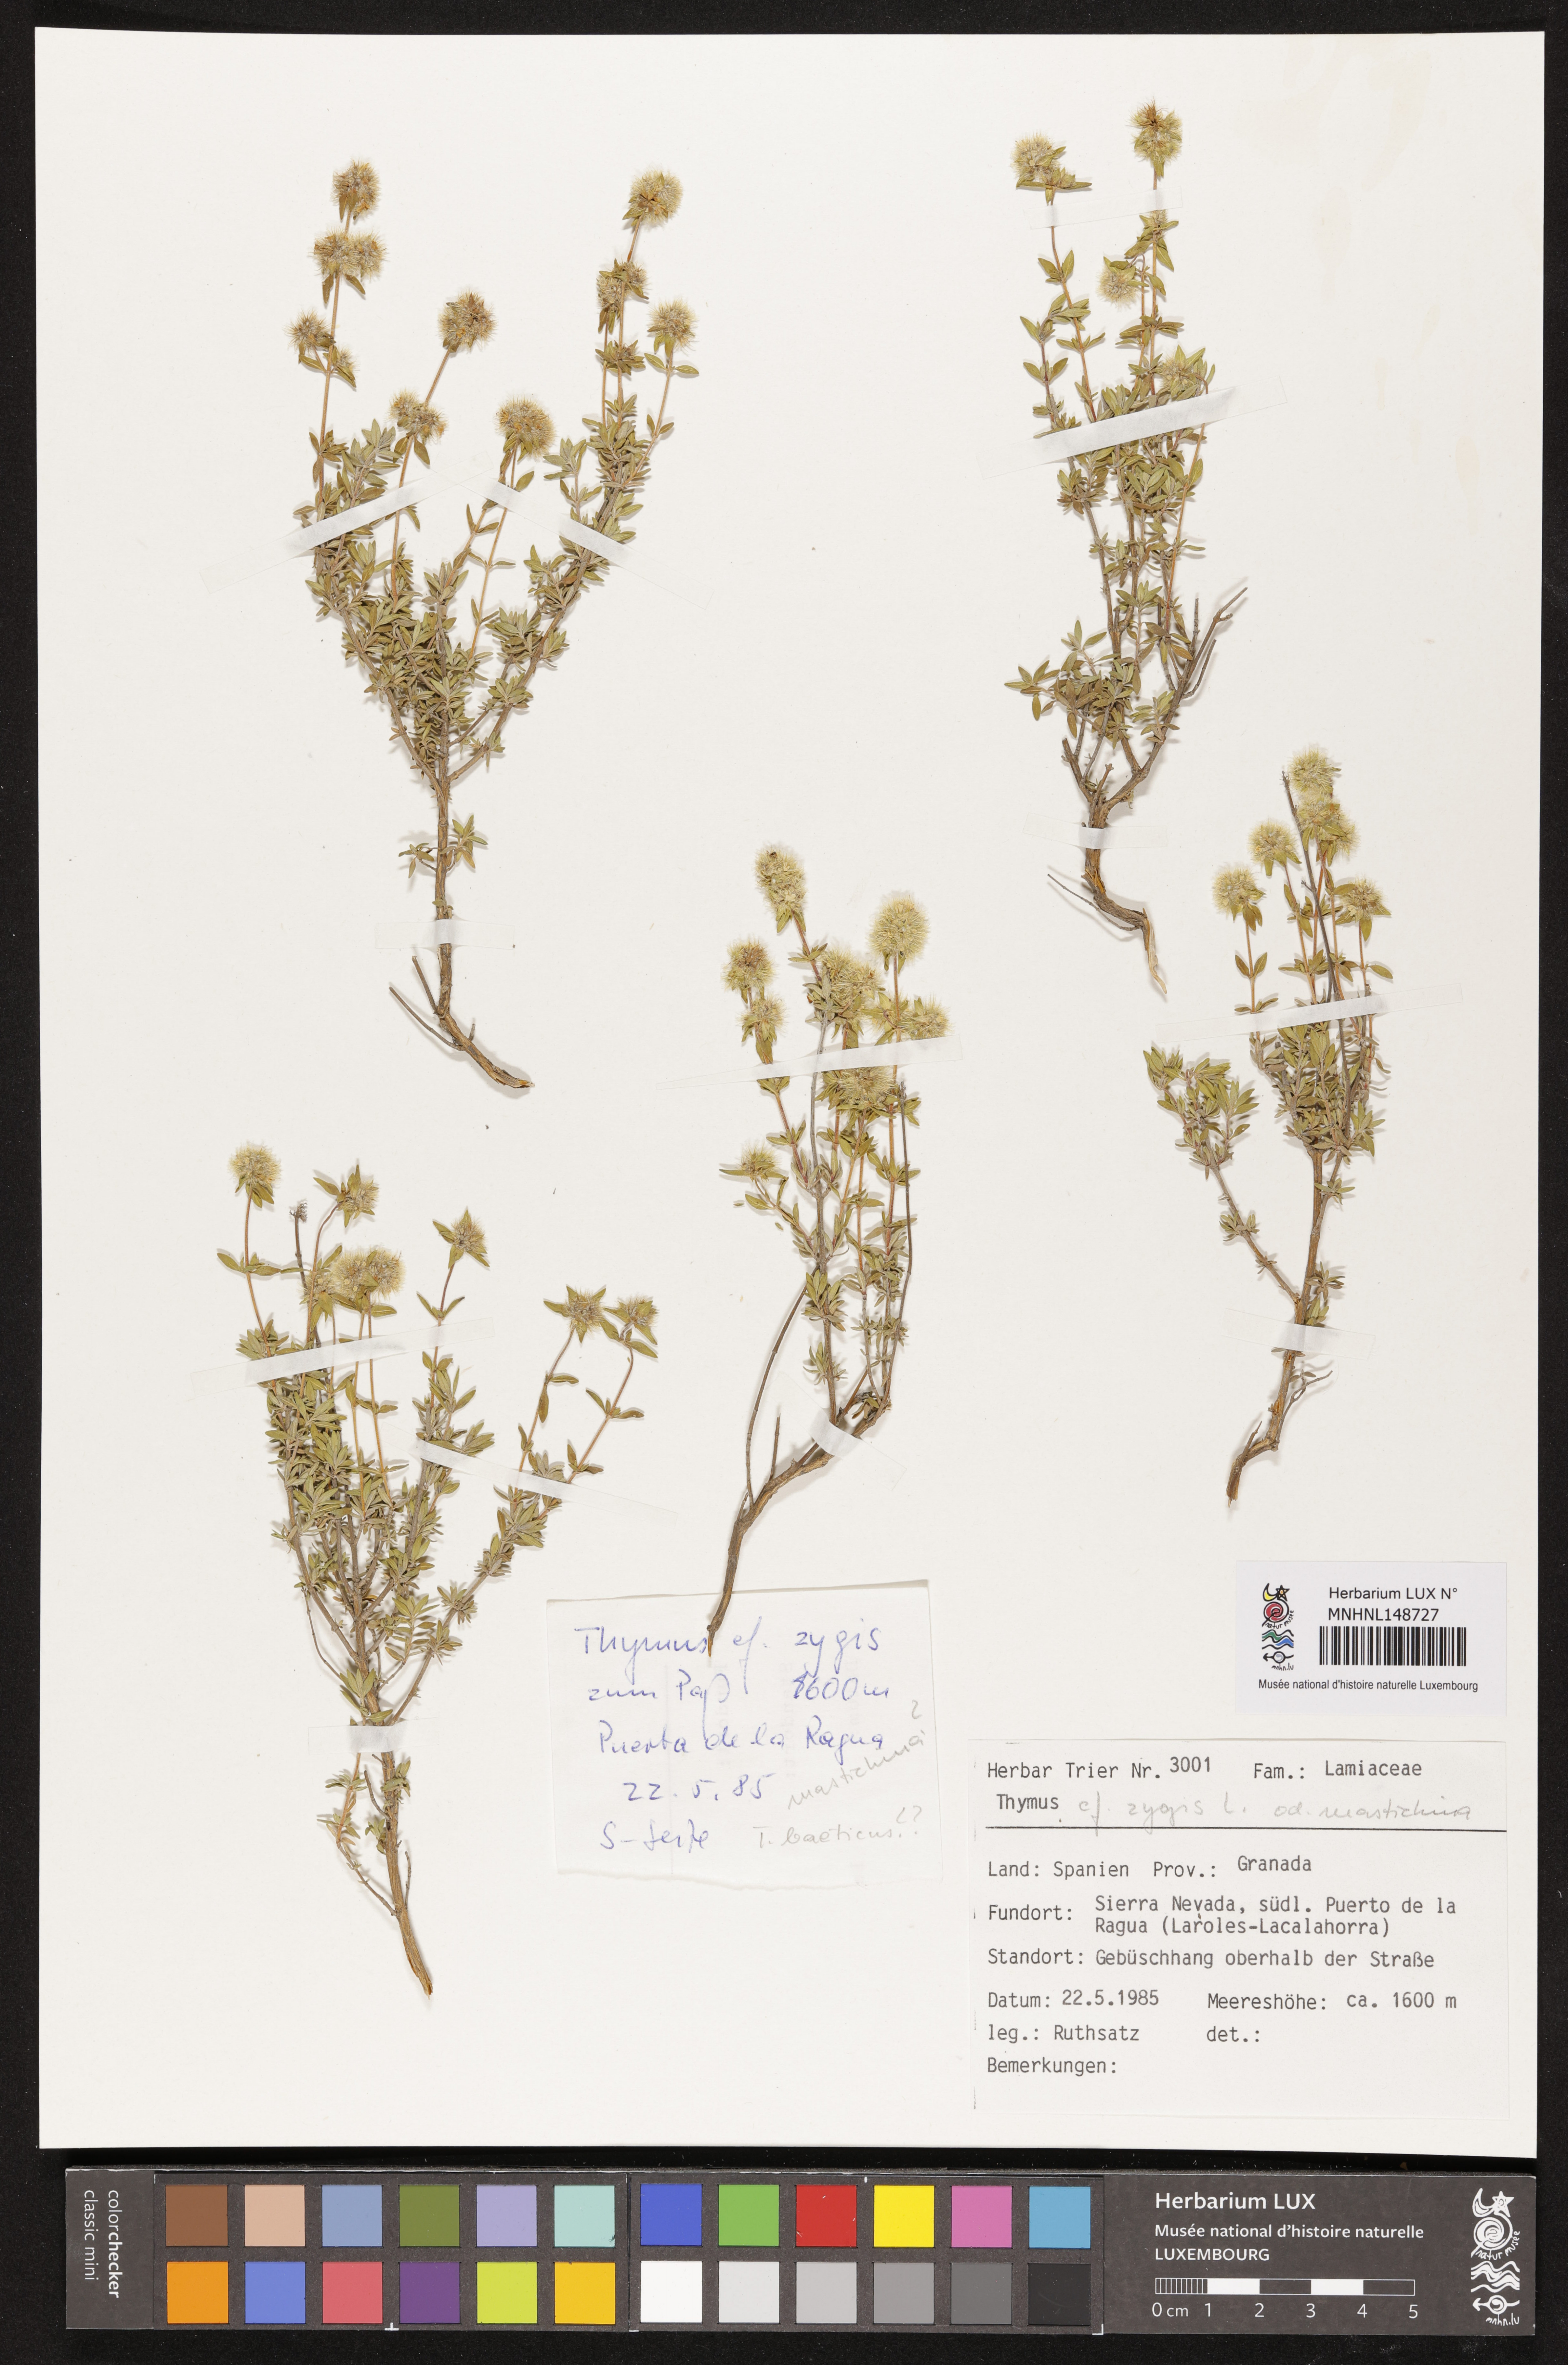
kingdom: Plantae
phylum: Tracheophyta
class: Magnoliopsida
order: Lamiales
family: Lamiaceae
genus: Thymus
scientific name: Thymus zygis
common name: White thyme
